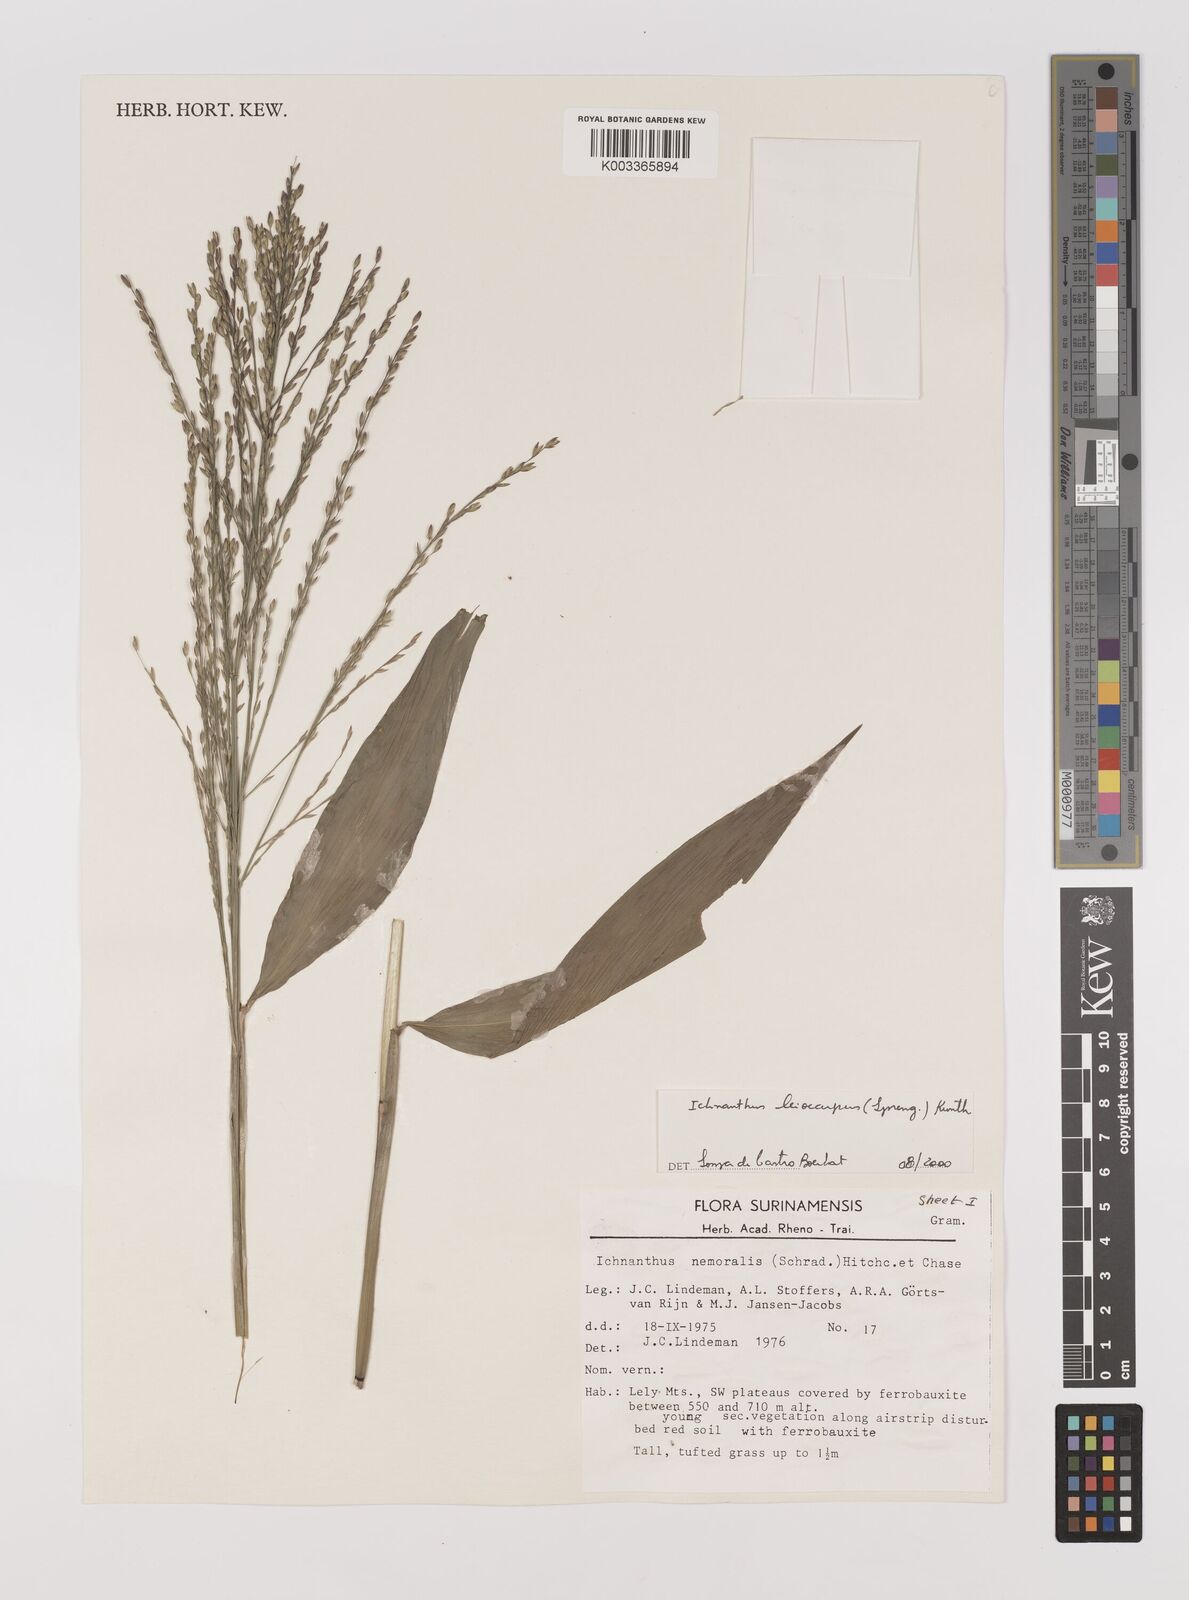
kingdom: Plantae
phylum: Tracheophyta
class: Liliopsida
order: Poales
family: Poaceae
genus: Ichnanthus
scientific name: Ichnanthus leiocarpus
